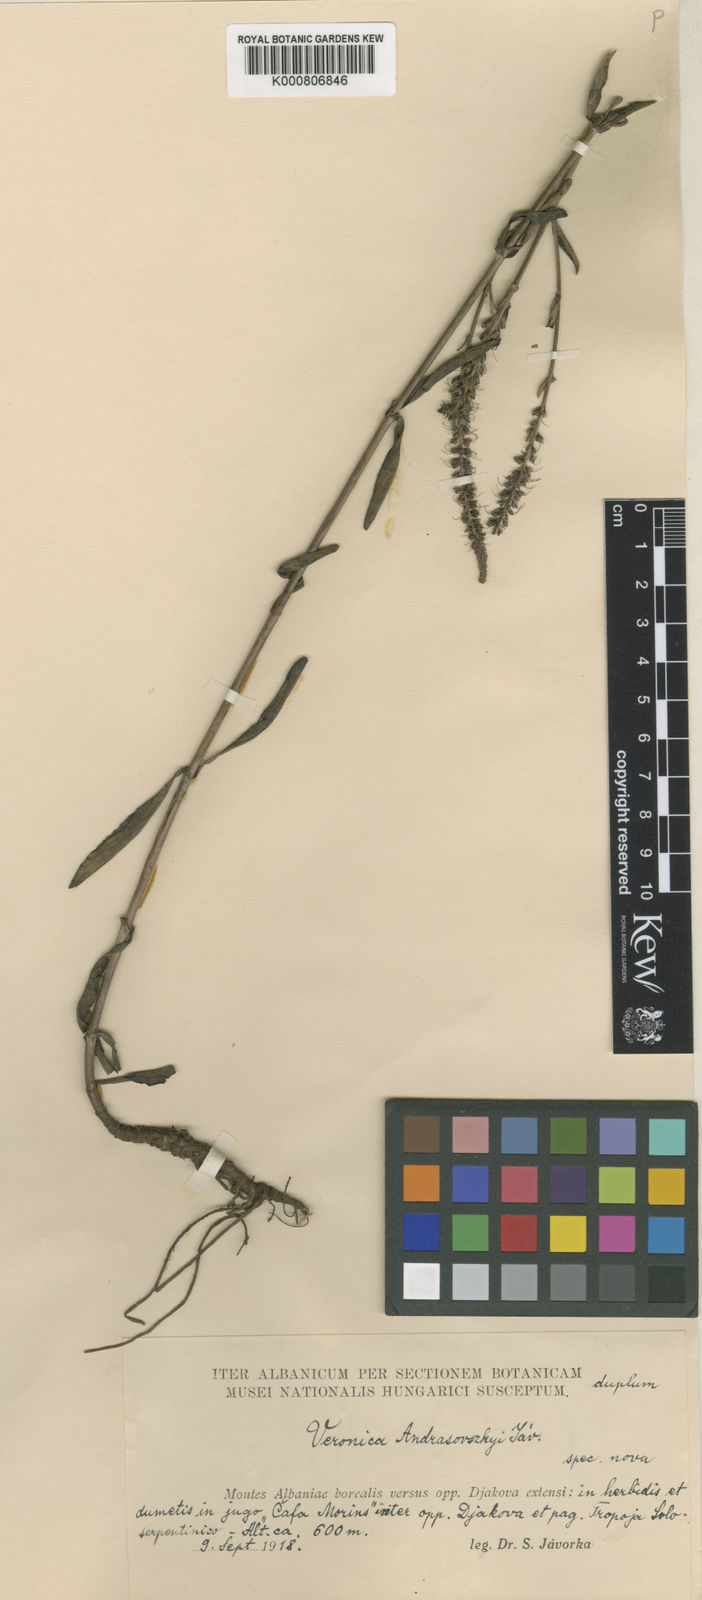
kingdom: Plantae
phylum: Tracheophyta
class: Magnoliopsida
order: Lamiales
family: Plantaginaceae
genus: Veronica
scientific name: Veronica barrelieri
